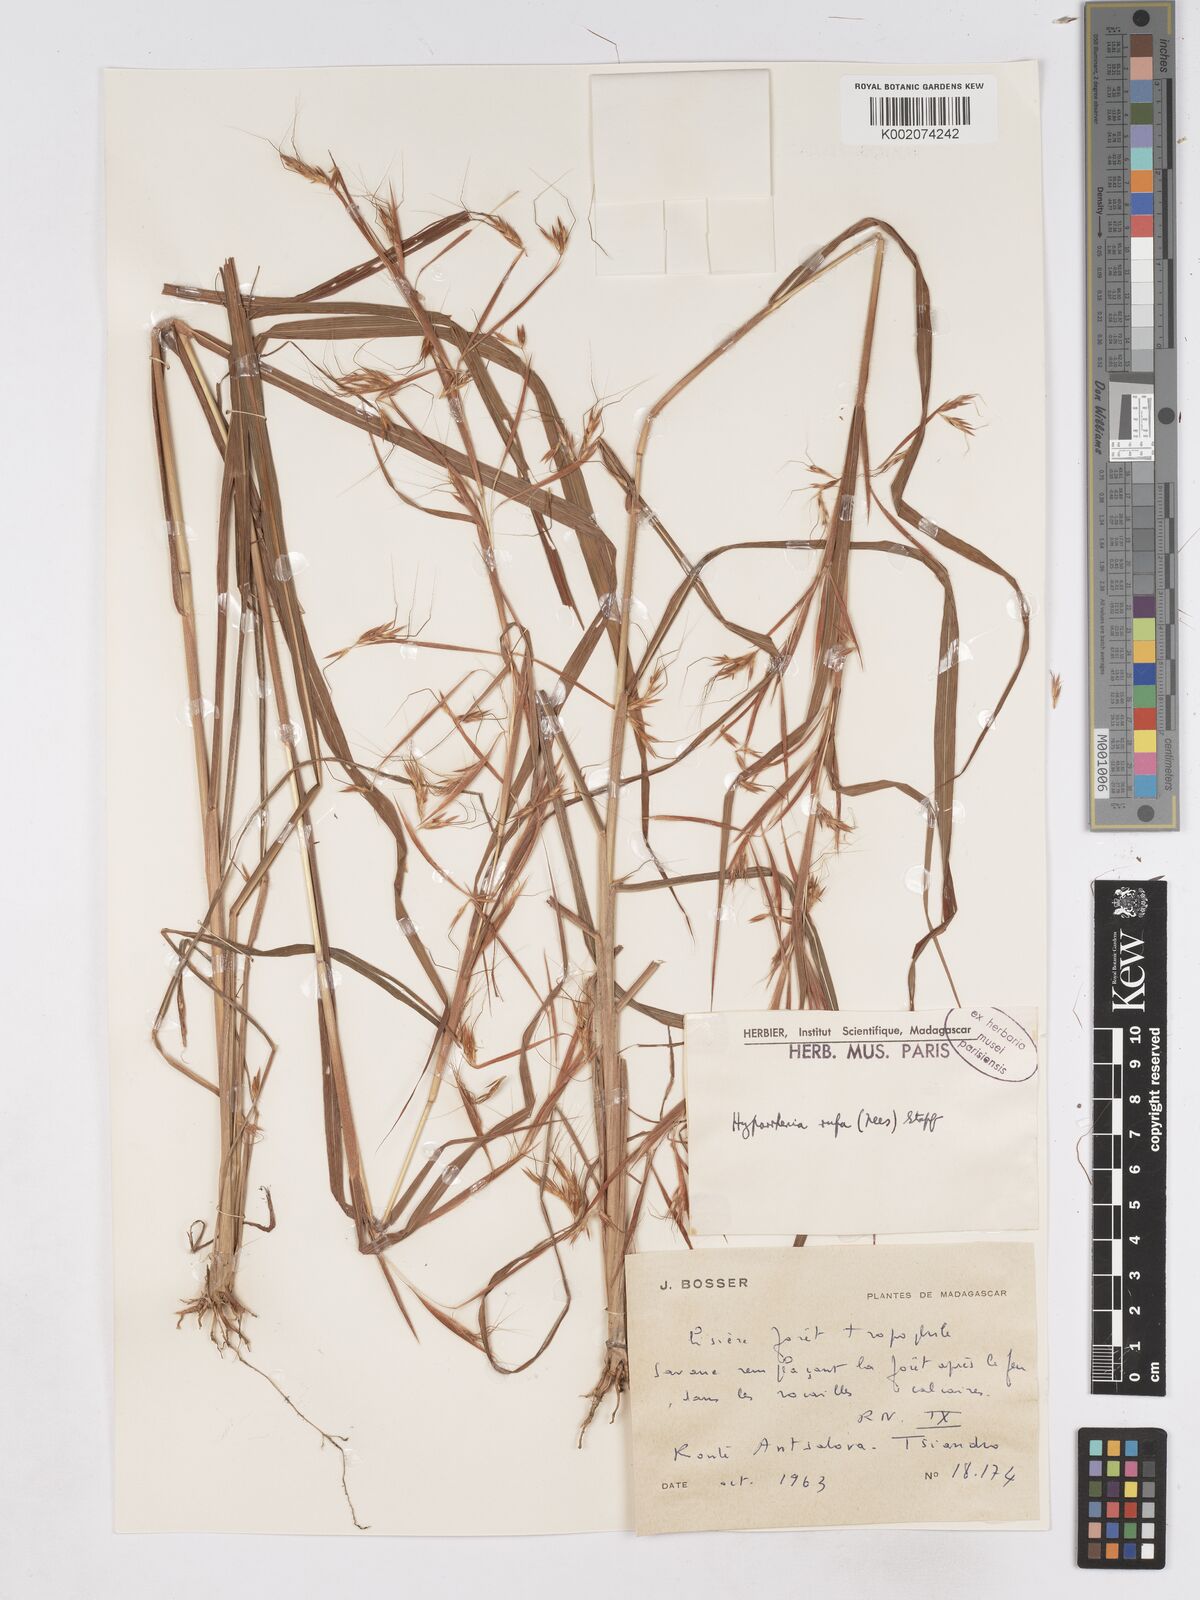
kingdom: Plantae
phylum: Tracheophyta
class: Liliopsida
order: Poales
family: Poaceae
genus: Hyparrhenia
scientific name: Hyparrhenia rufa
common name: Jaraguagrass
